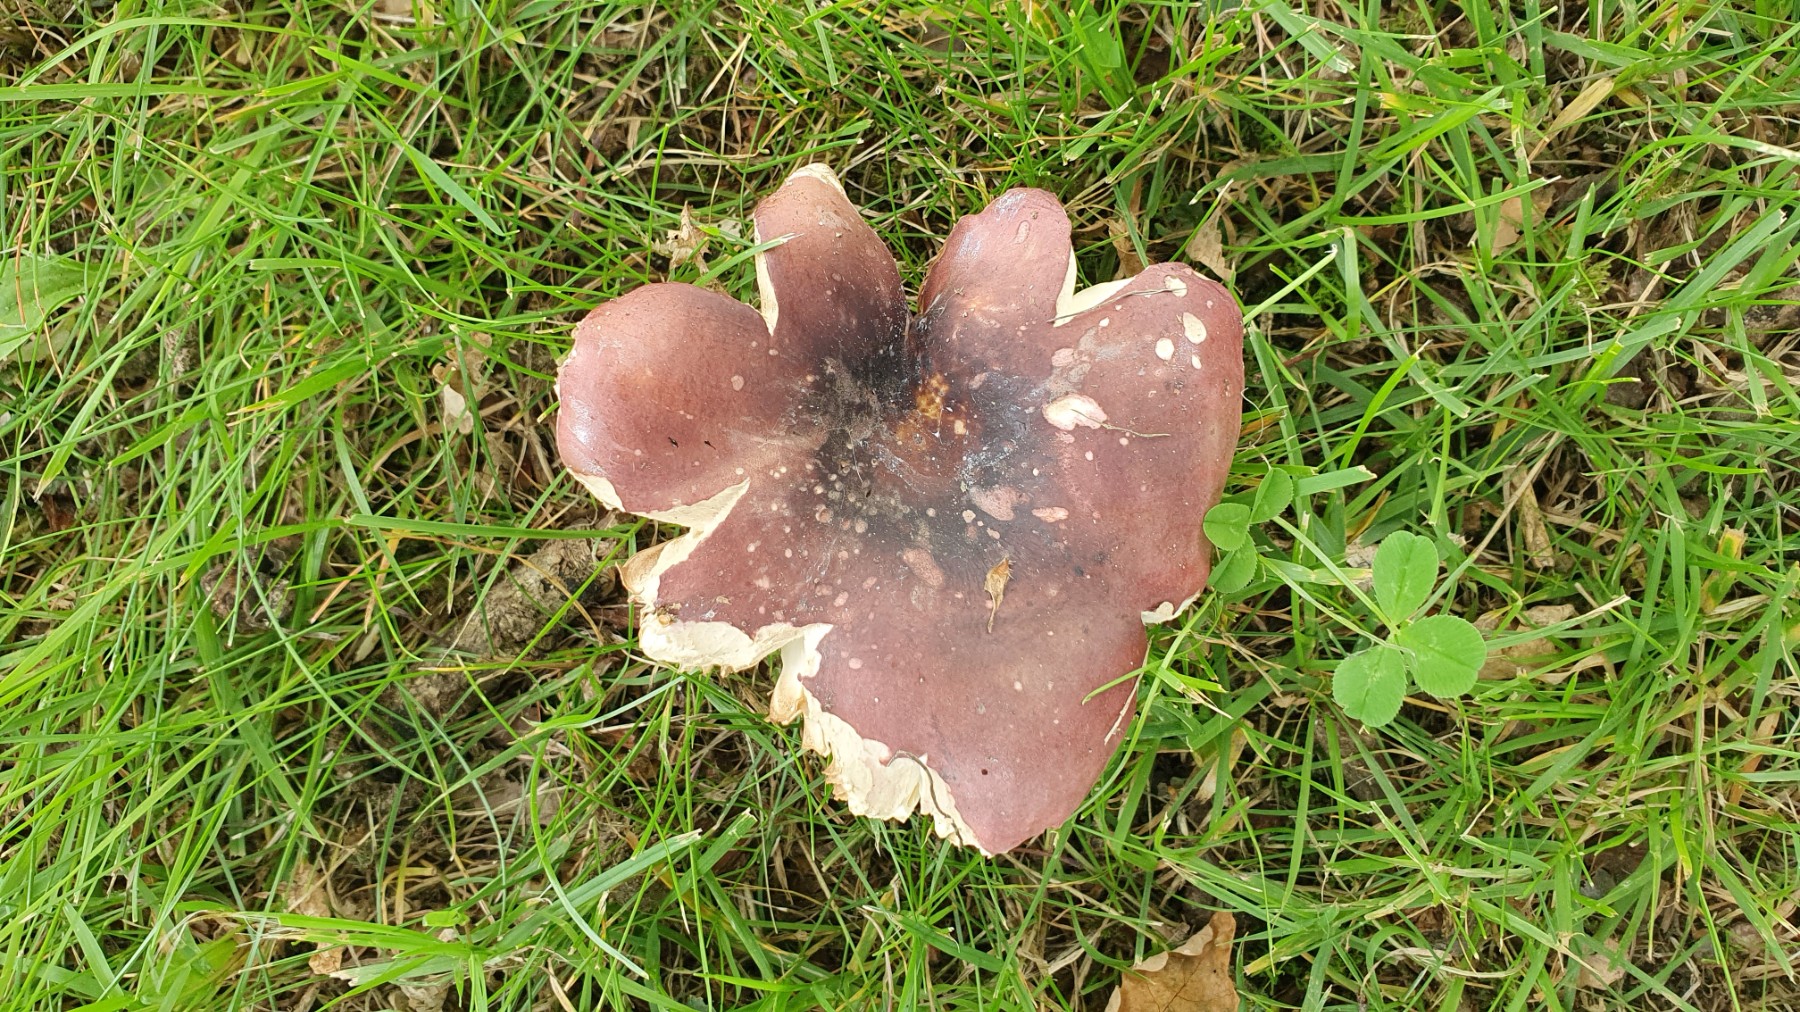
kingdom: Fungi
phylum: Basidiomycota
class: Agaricomycetes
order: Russulales
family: Russulaceae
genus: Russula
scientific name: Russula graveolens
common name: bugtet skørhat
